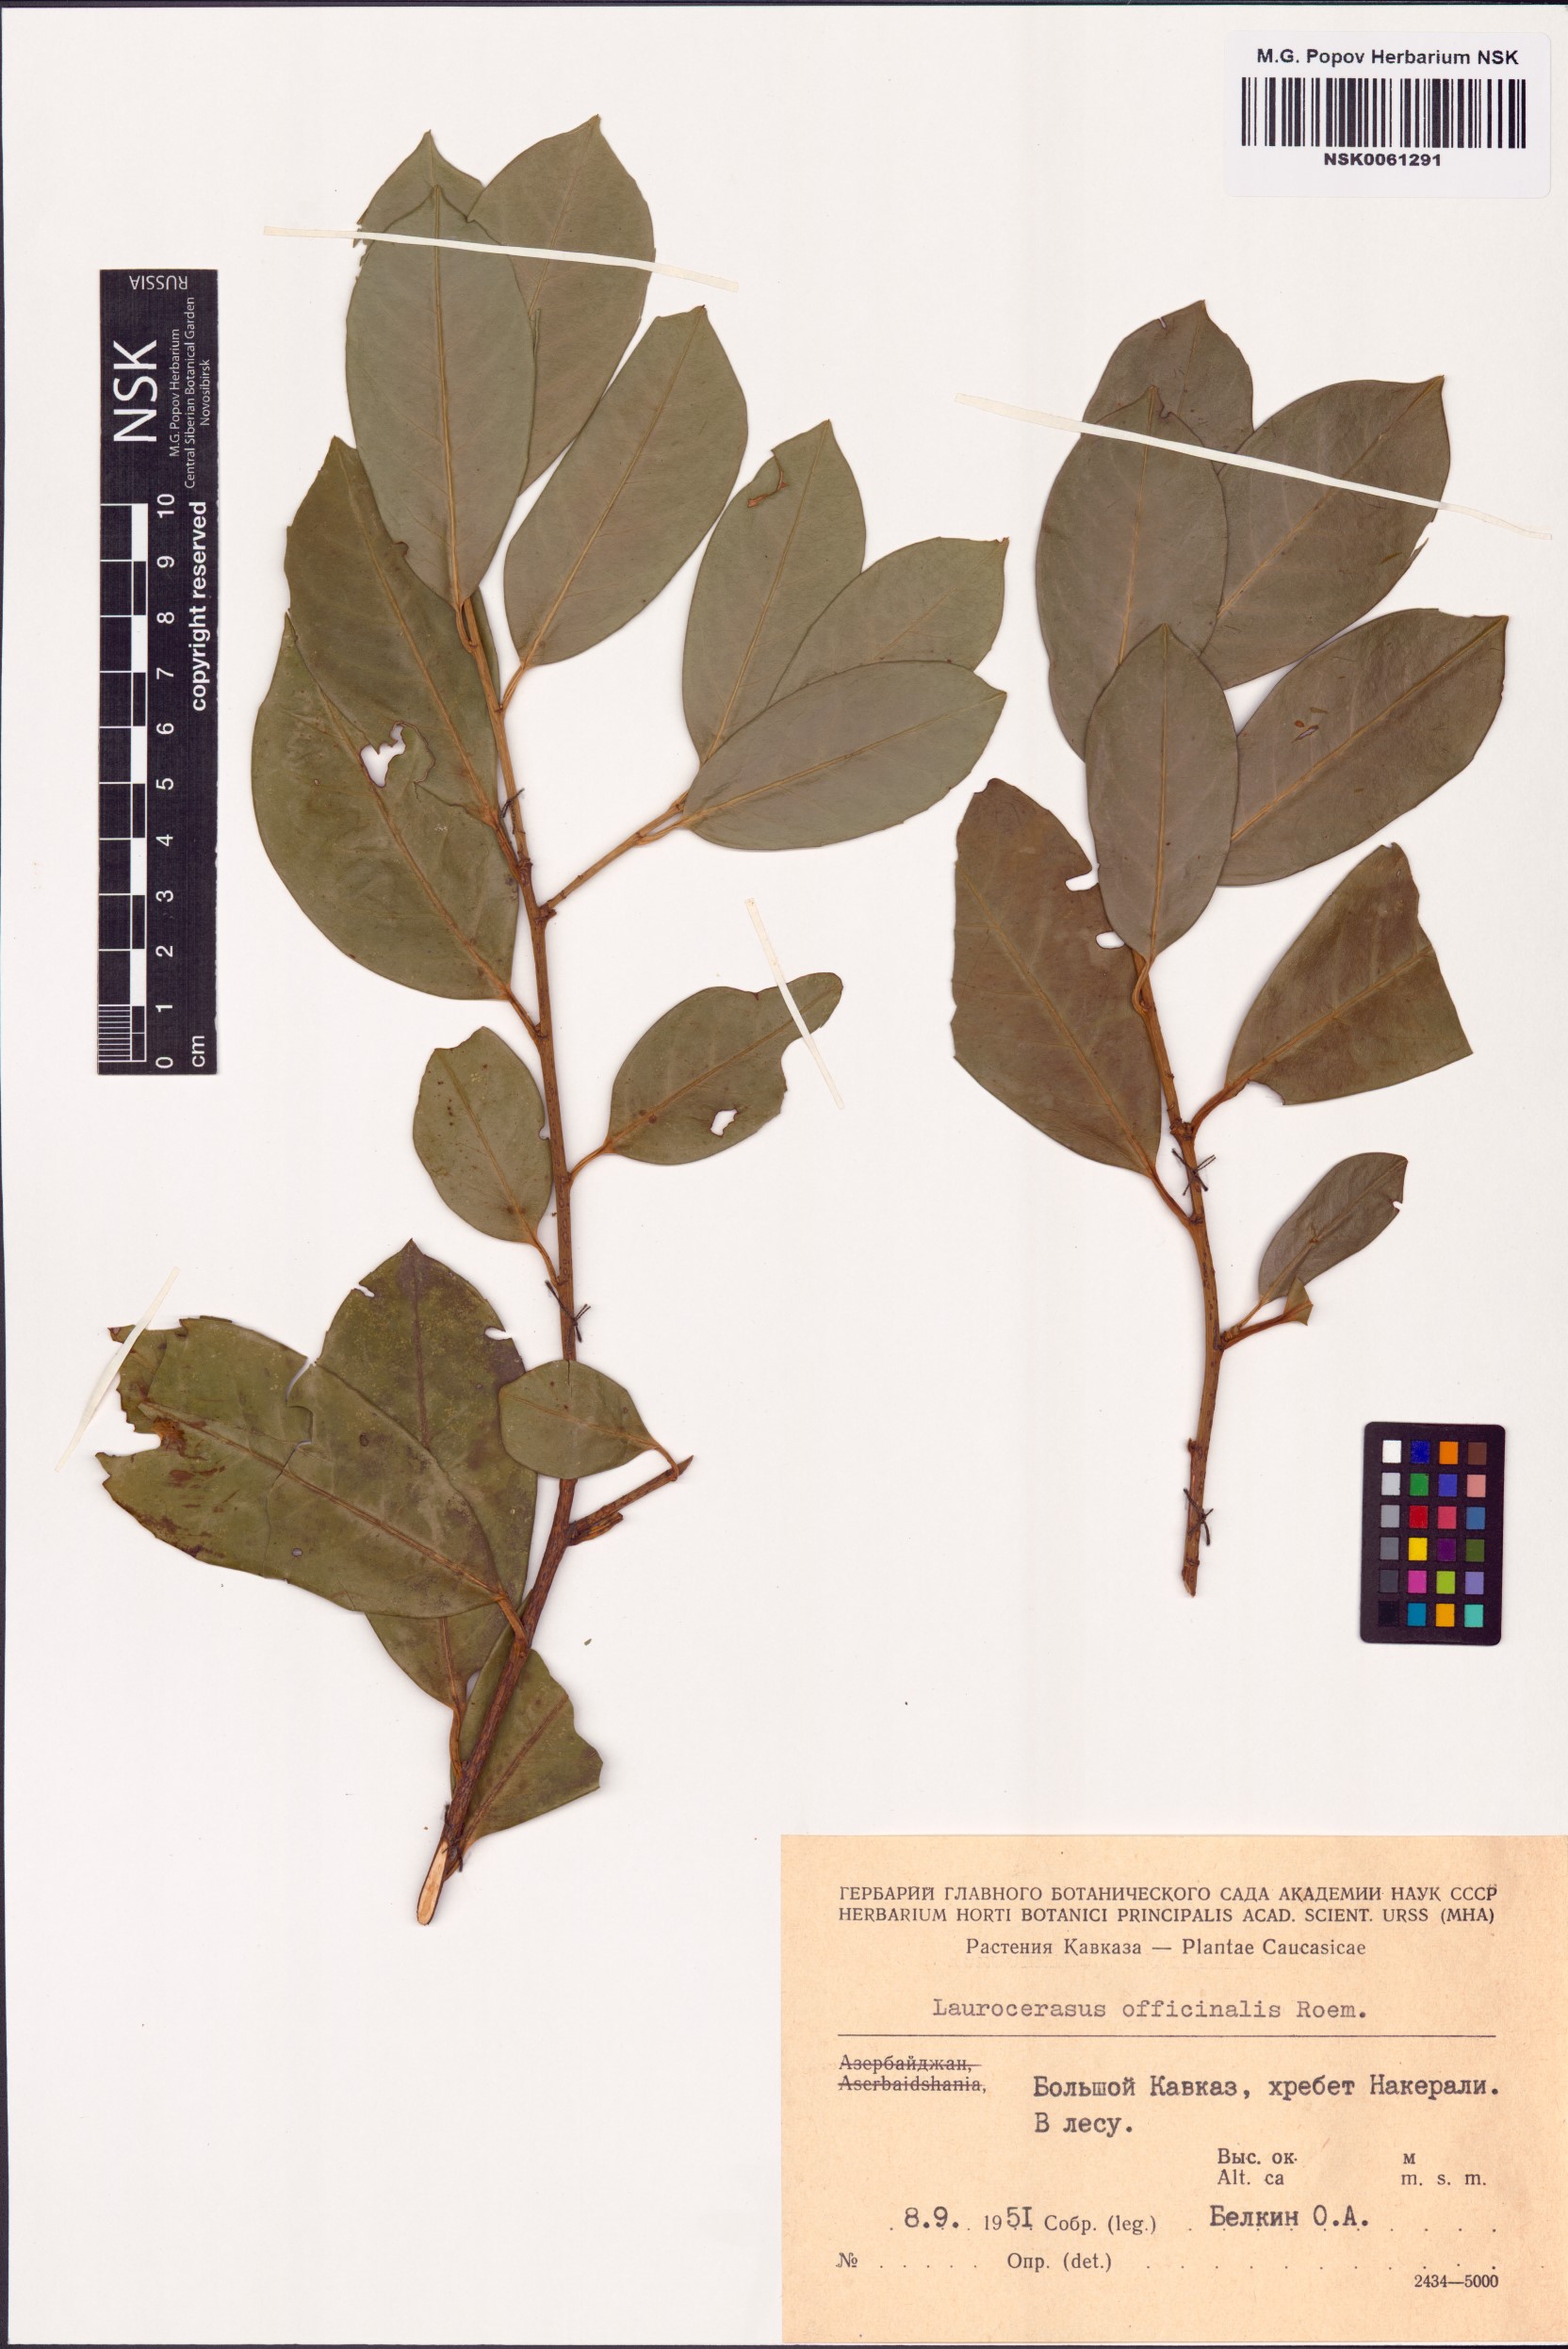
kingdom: Plantae
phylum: Tracheophyta
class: Magnoliopsida
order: Rosales
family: Rosaceae
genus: Prunus
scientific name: Prunus laurocerasus
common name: Cherry laurel
